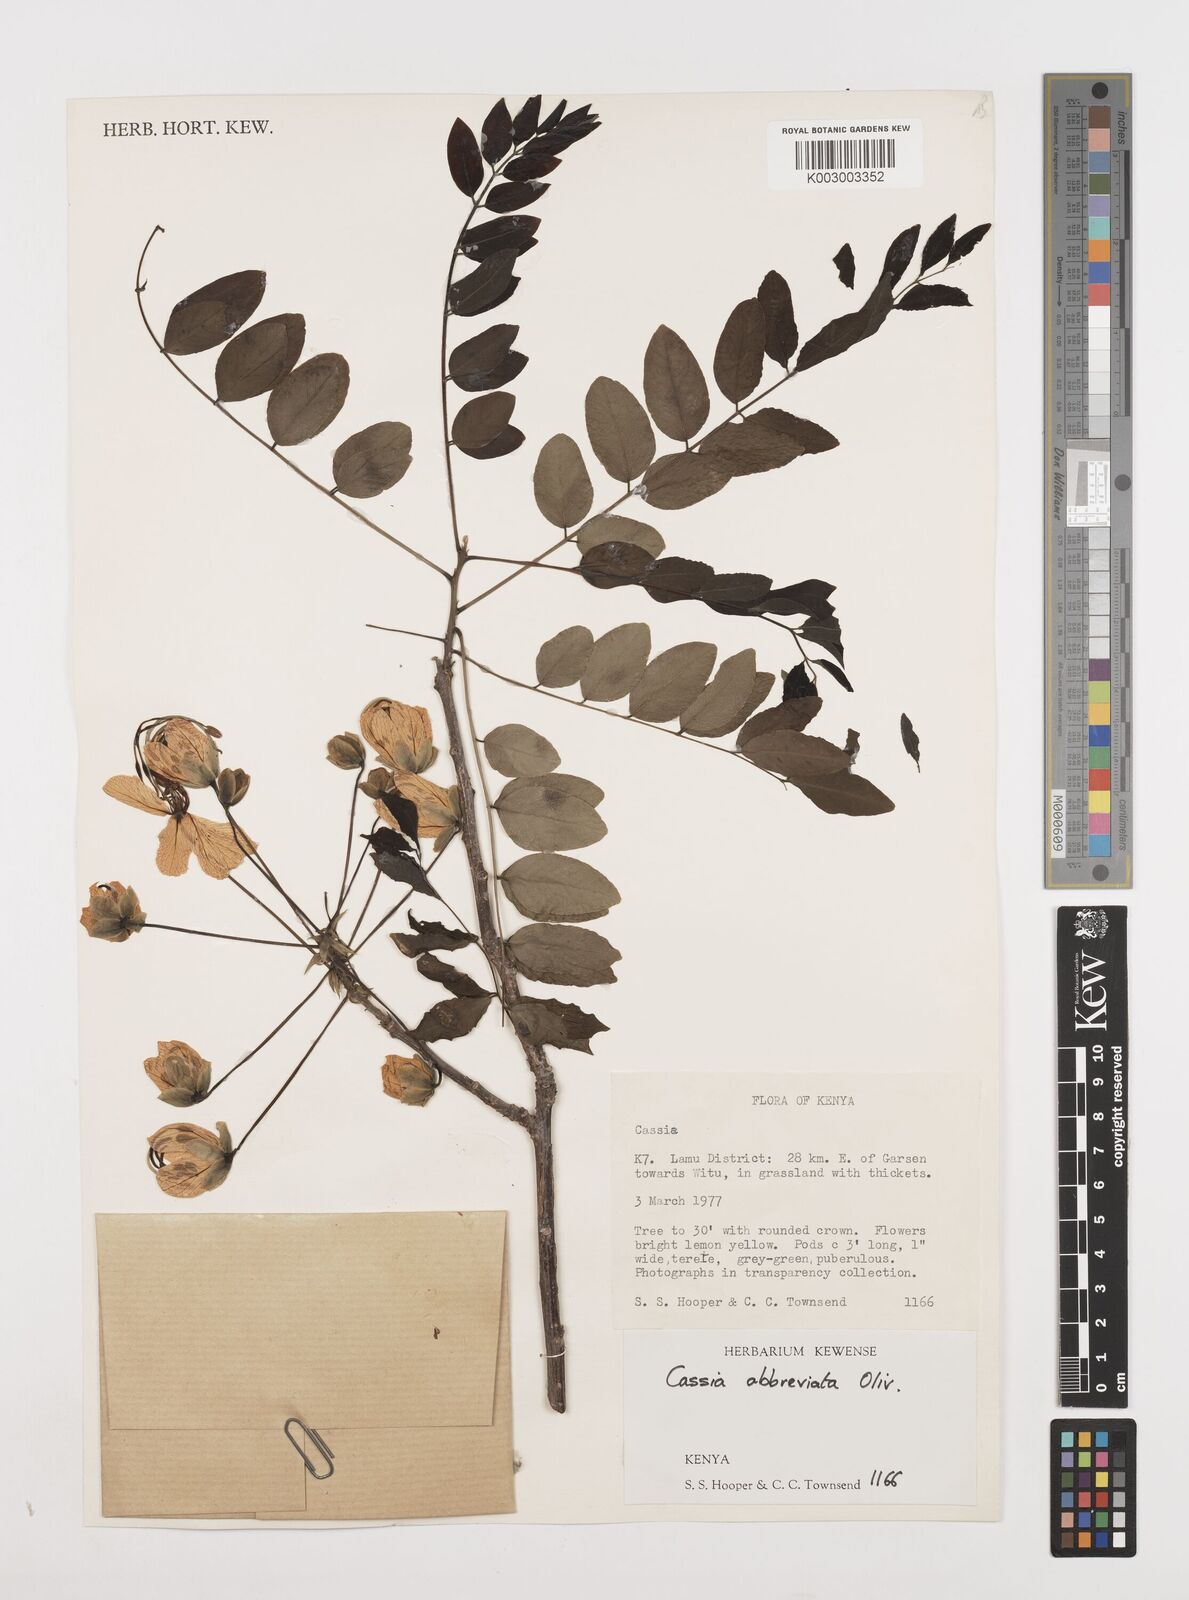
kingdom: Plantae
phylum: Tracheophyta
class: Magnoliopsida
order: Fabales
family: Fabaceae
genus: Cassia
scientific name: Cassia abbreviata
